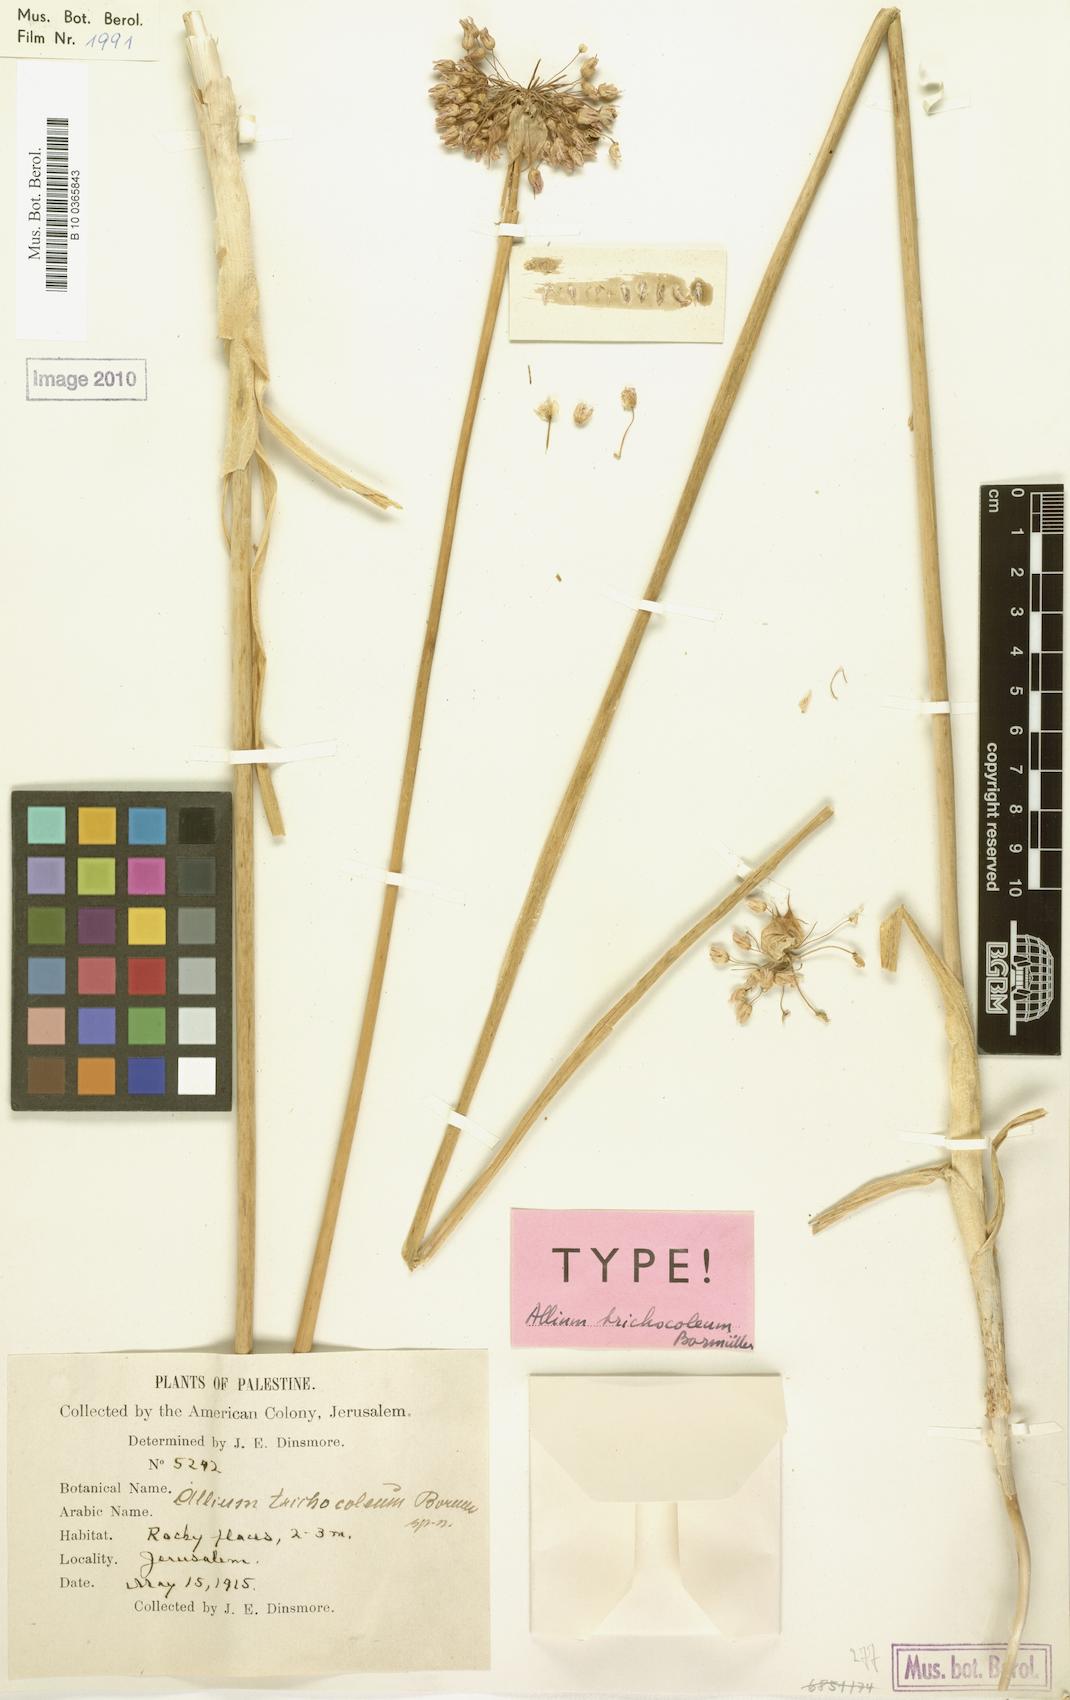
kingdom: Plantae
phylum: Tracheophyta
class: Liliopsida
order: Asparagales
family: Amaryllidaceae
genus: Allium
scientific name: Allium carmeli
